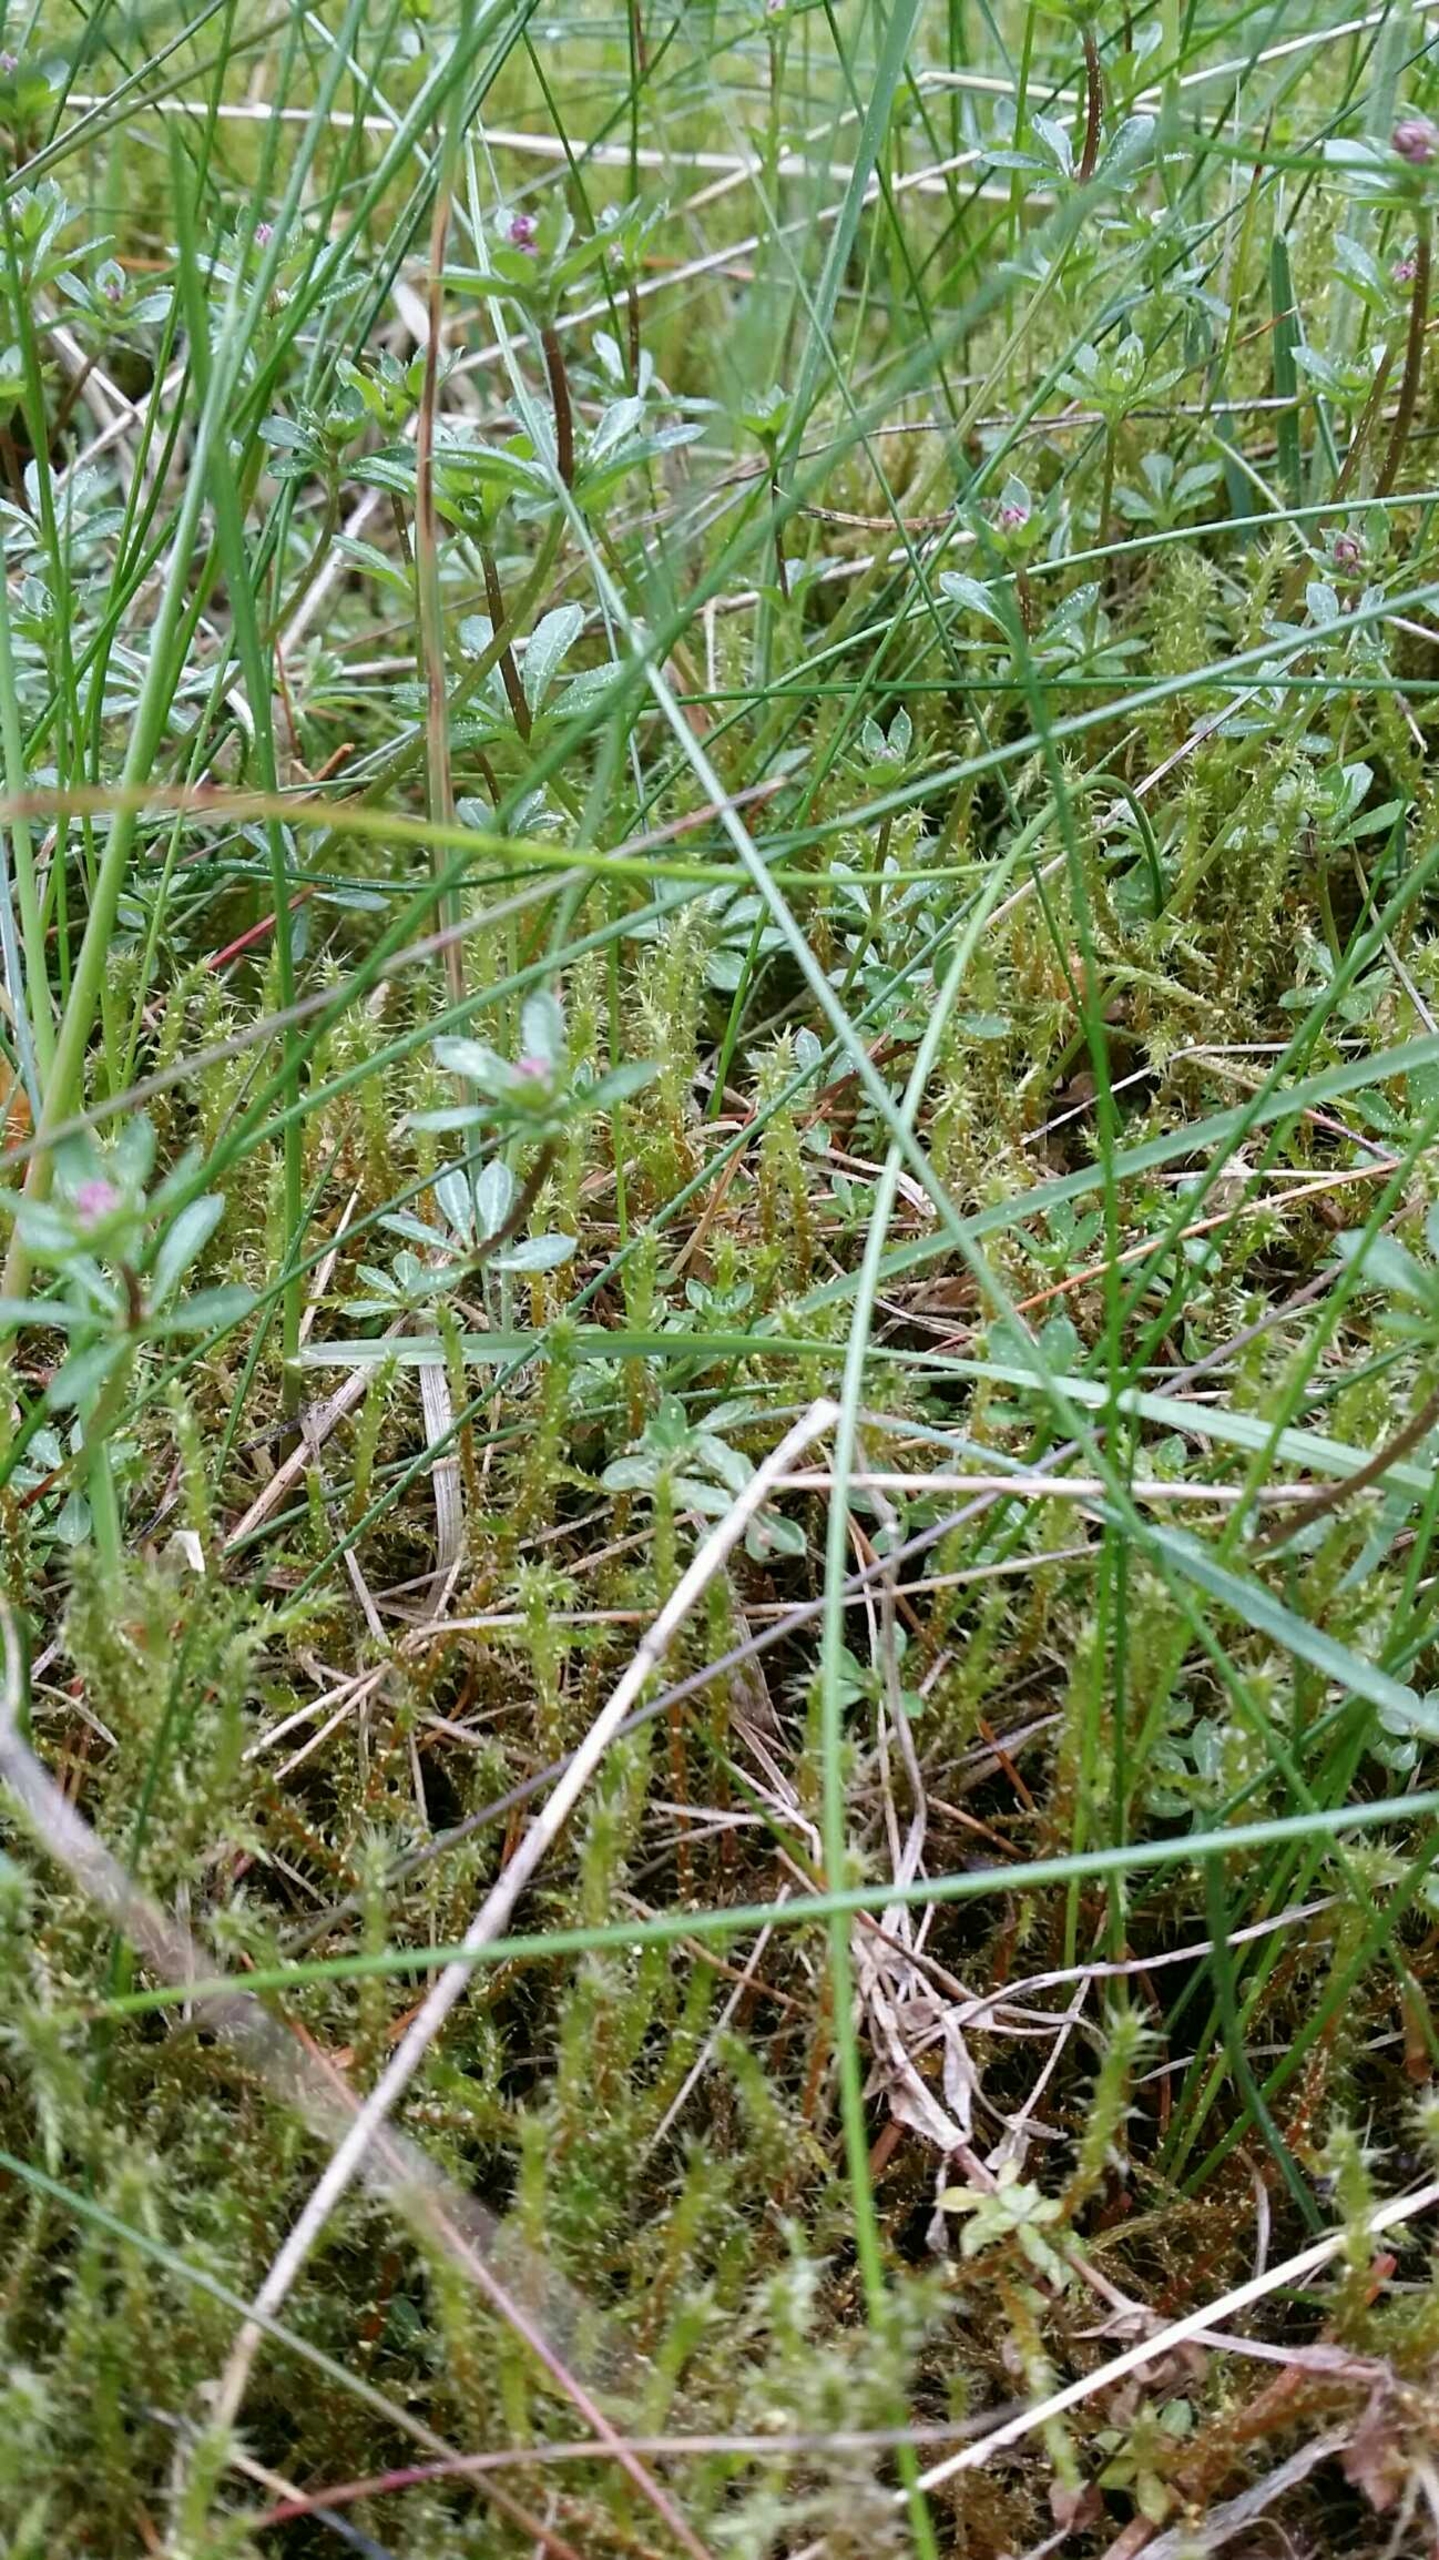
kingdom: Plantae
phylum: Tracheophyta
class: Magnoliopsida
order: Gentianales
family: Rubiaceae
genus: Galium
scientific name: Galium saxatile
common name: Lyng-snerre
